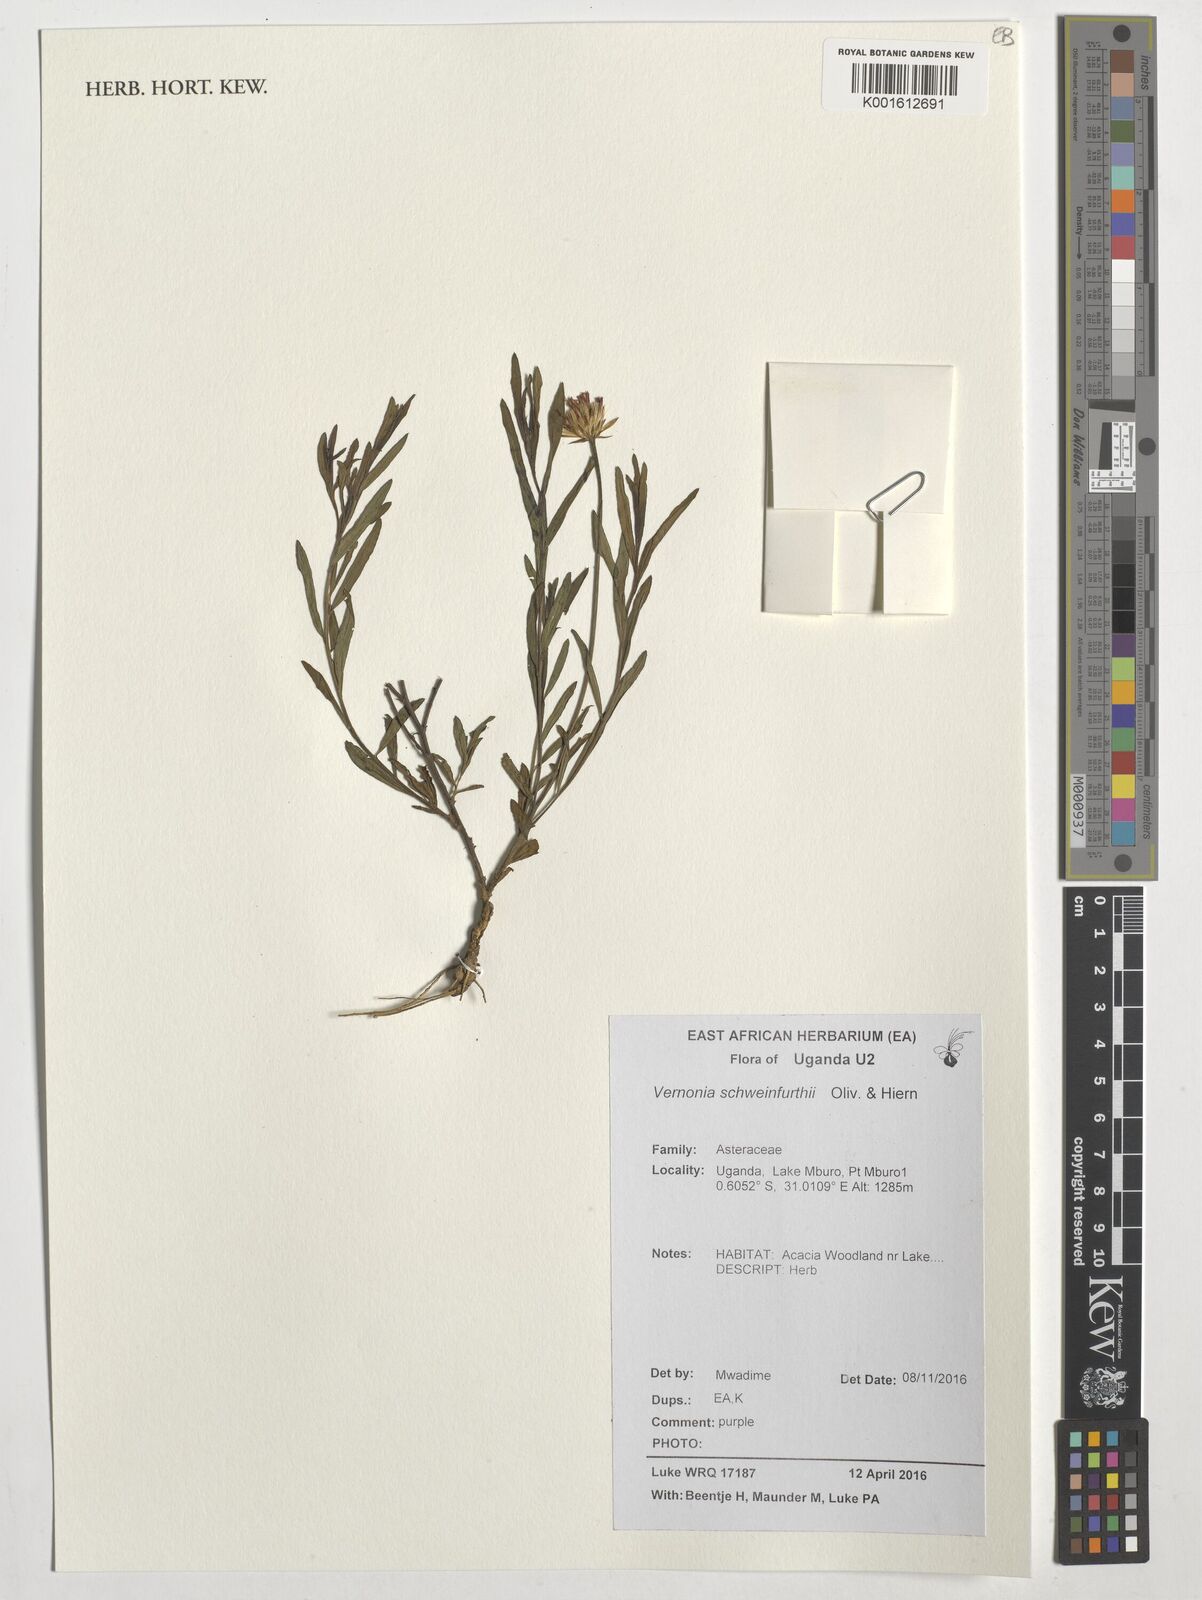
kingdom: Plantae
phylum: Tracheophyta
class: Magnoliopsida
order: Asterales
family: Asteraceae
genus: Vernonia
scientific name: Vernonia schweinfurthii
